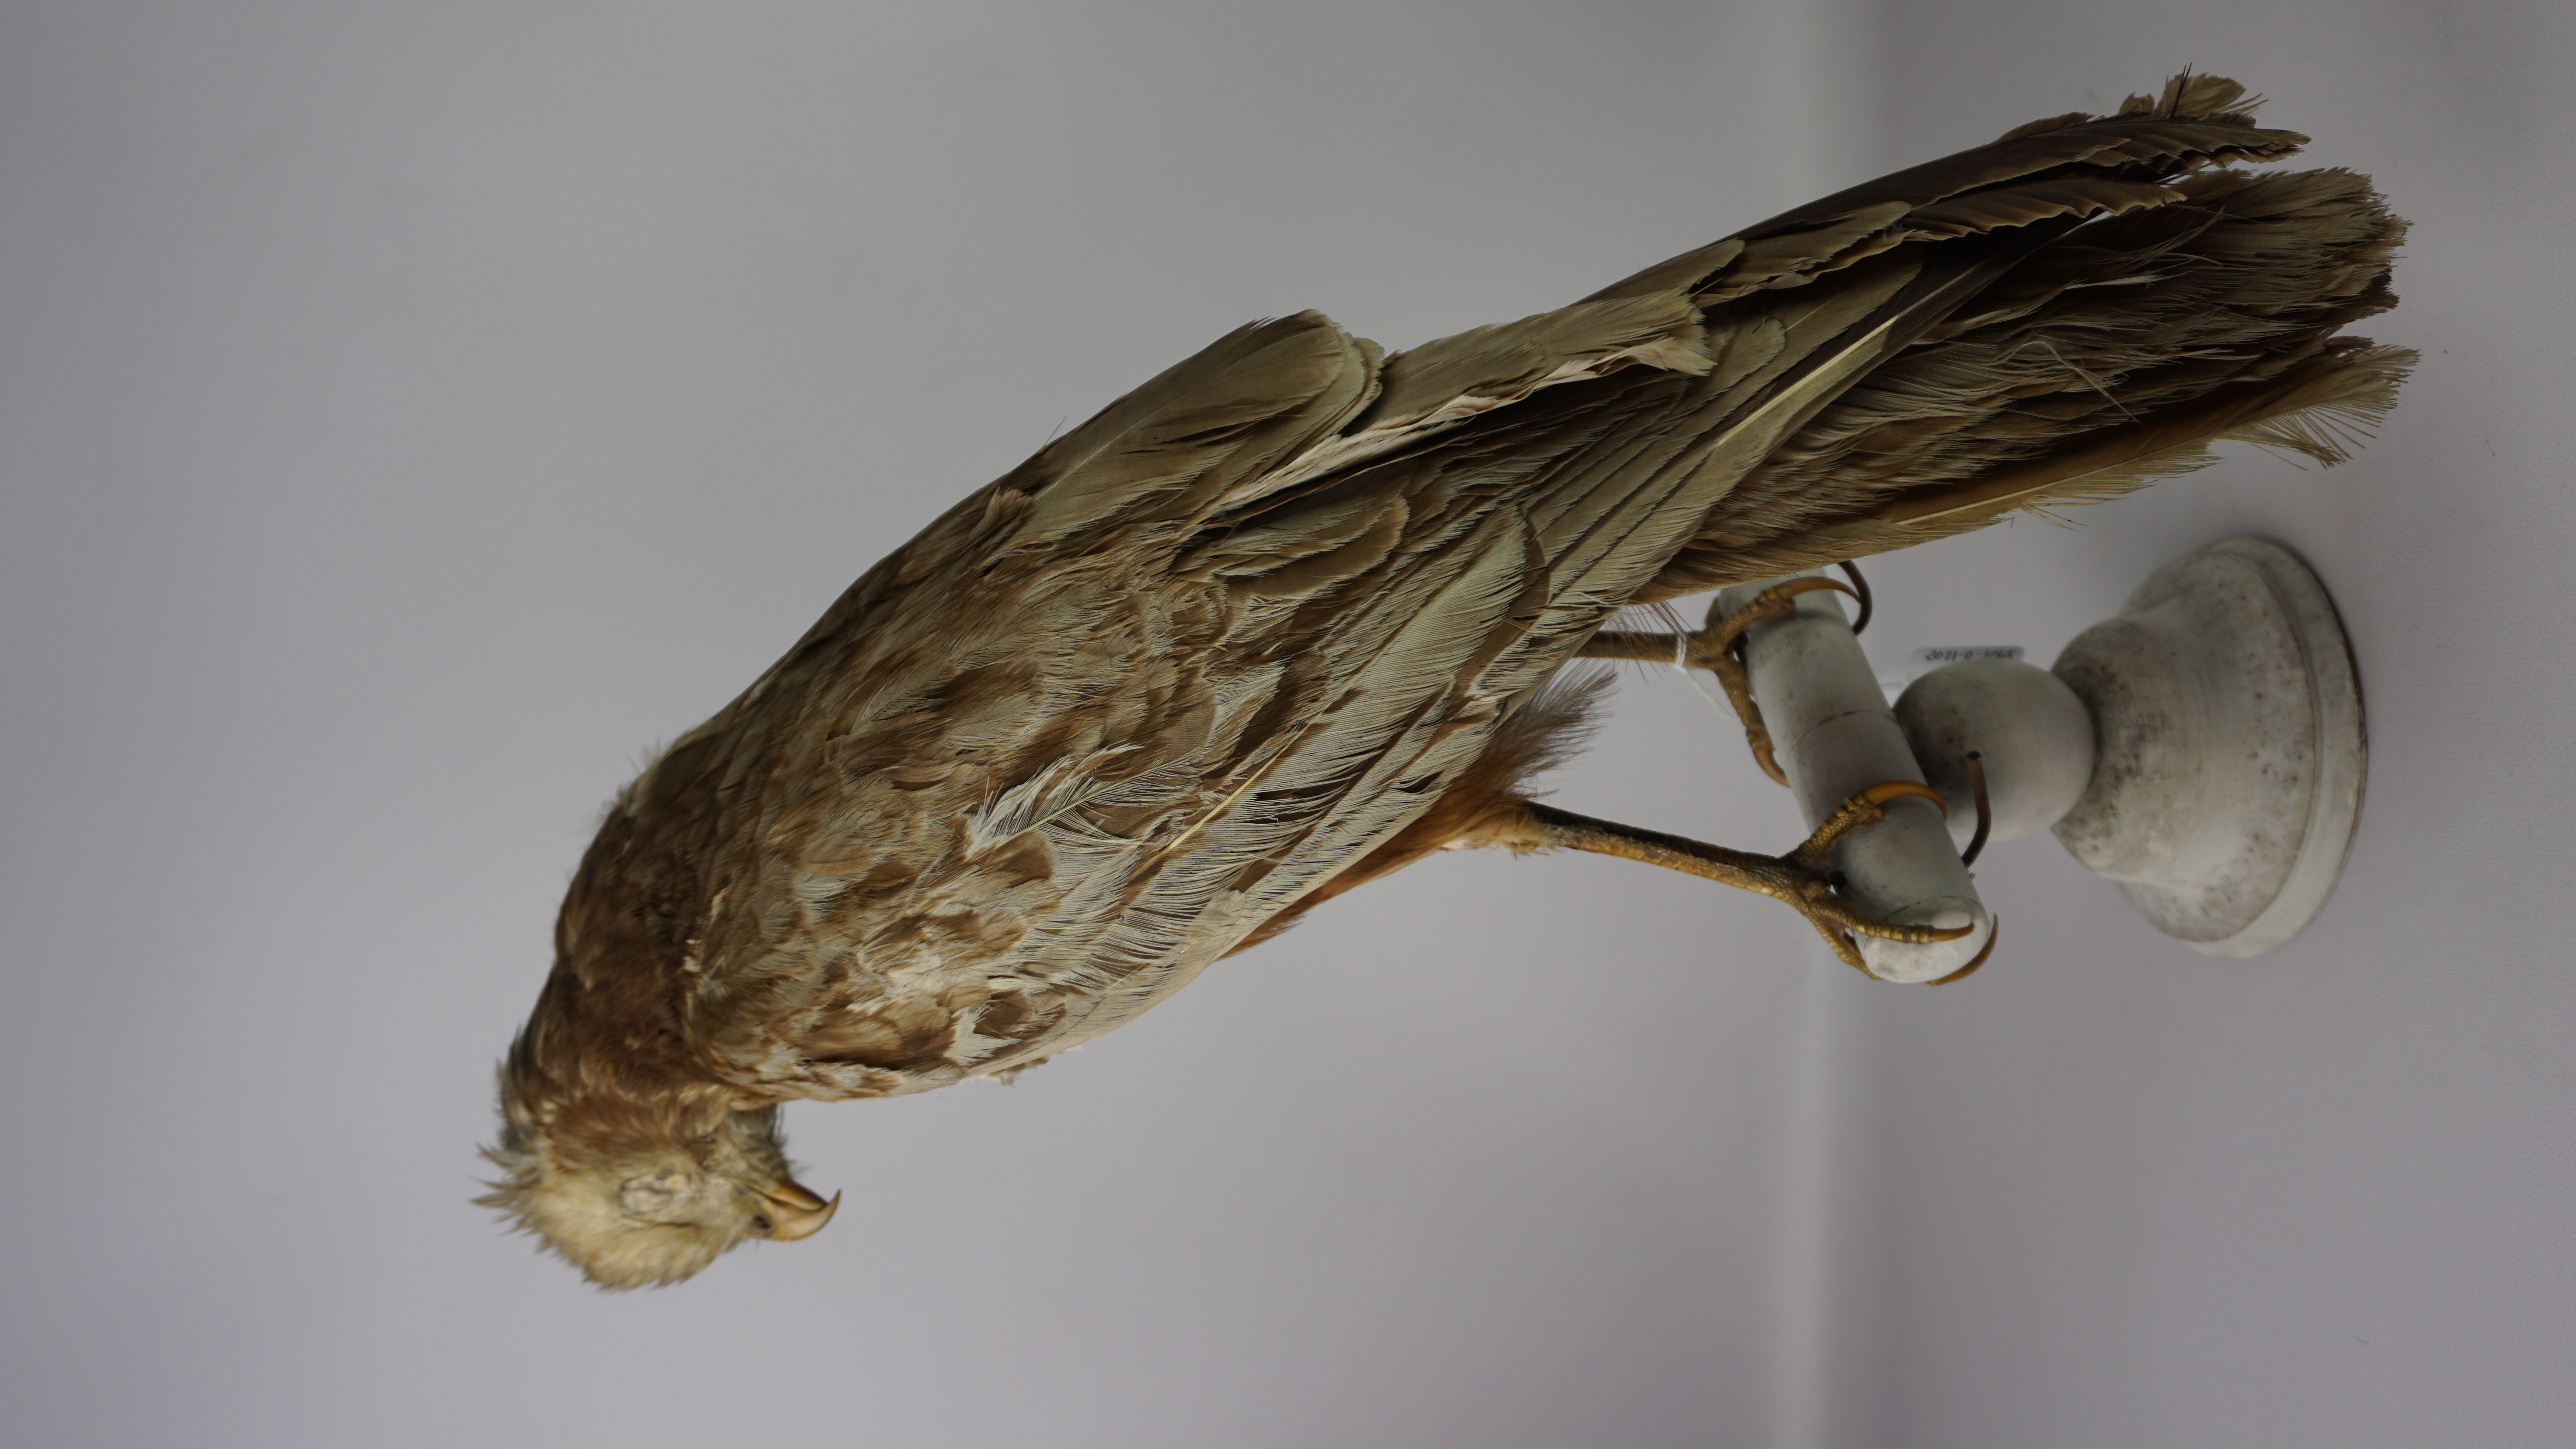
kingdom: Animalia
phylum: Chordata
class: Aves
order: Accipitriformes
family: Accipitridae
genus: Circus
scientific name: Circus aeruginosus
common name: Western marsh harrier
